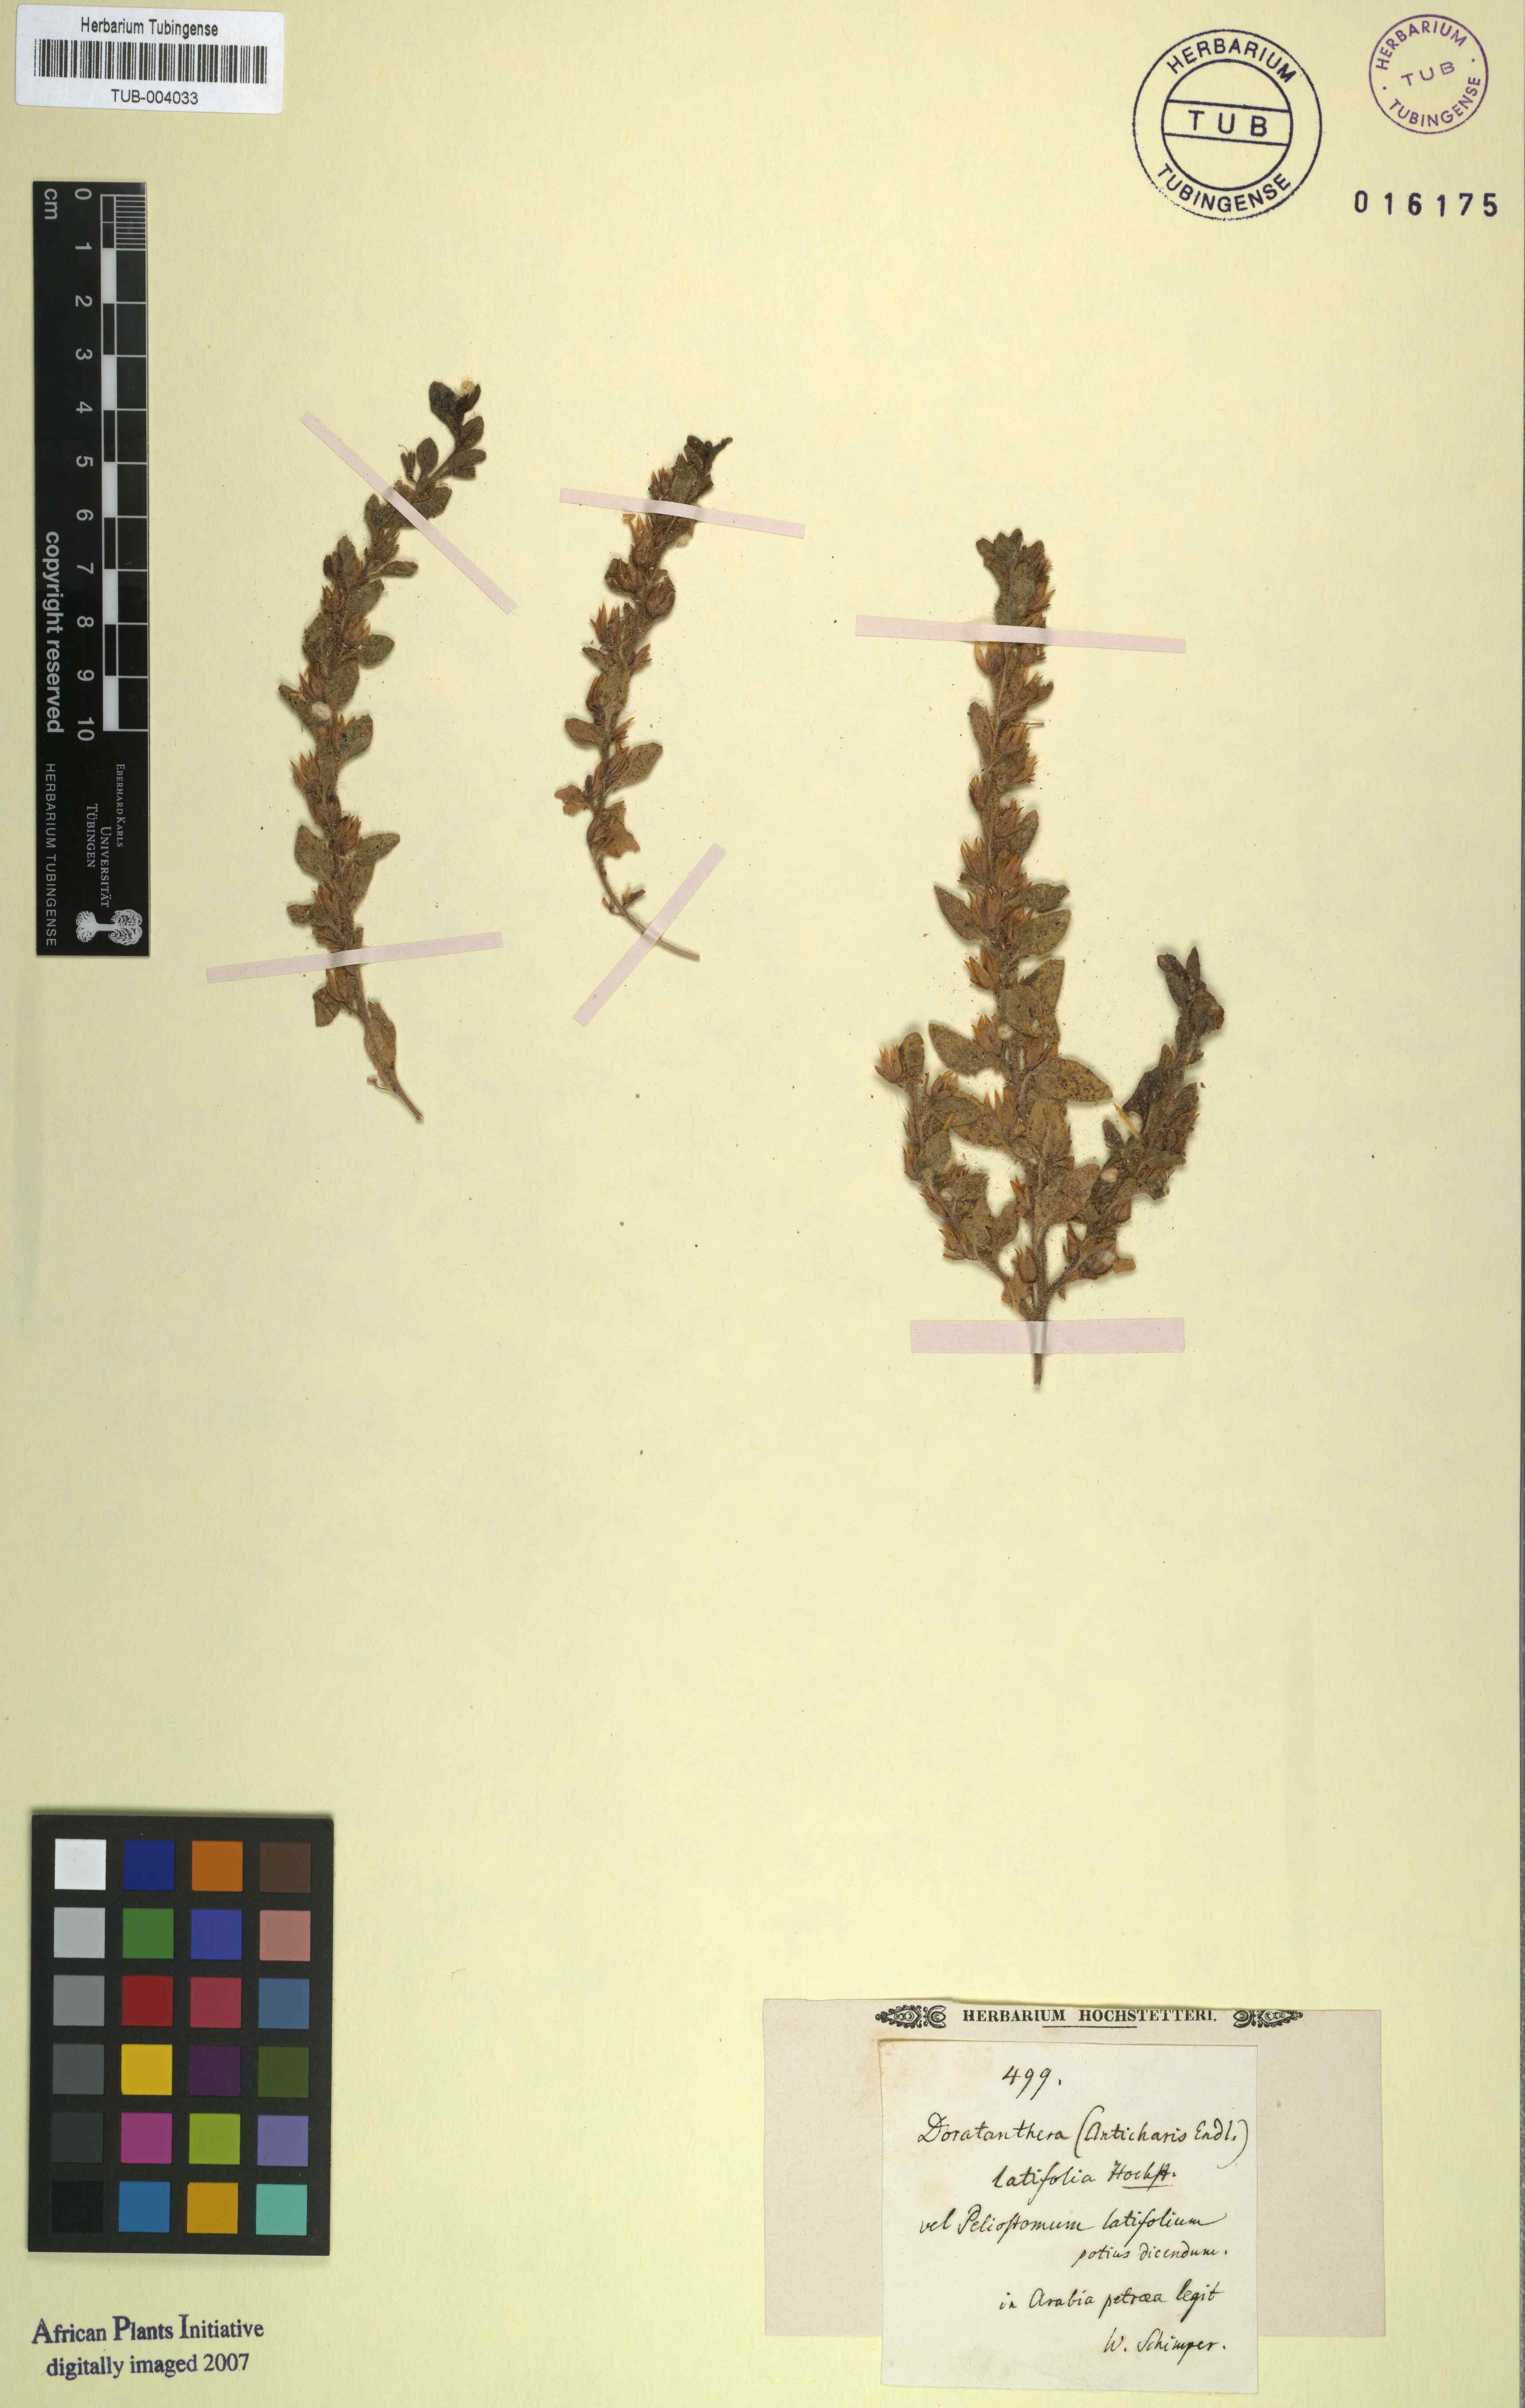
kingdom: Plantae
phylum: Tracheophyta
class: Magnoliopsida
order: Lamiales
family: Scrophulariaceae
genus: Anticharis
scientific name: Anticharis
